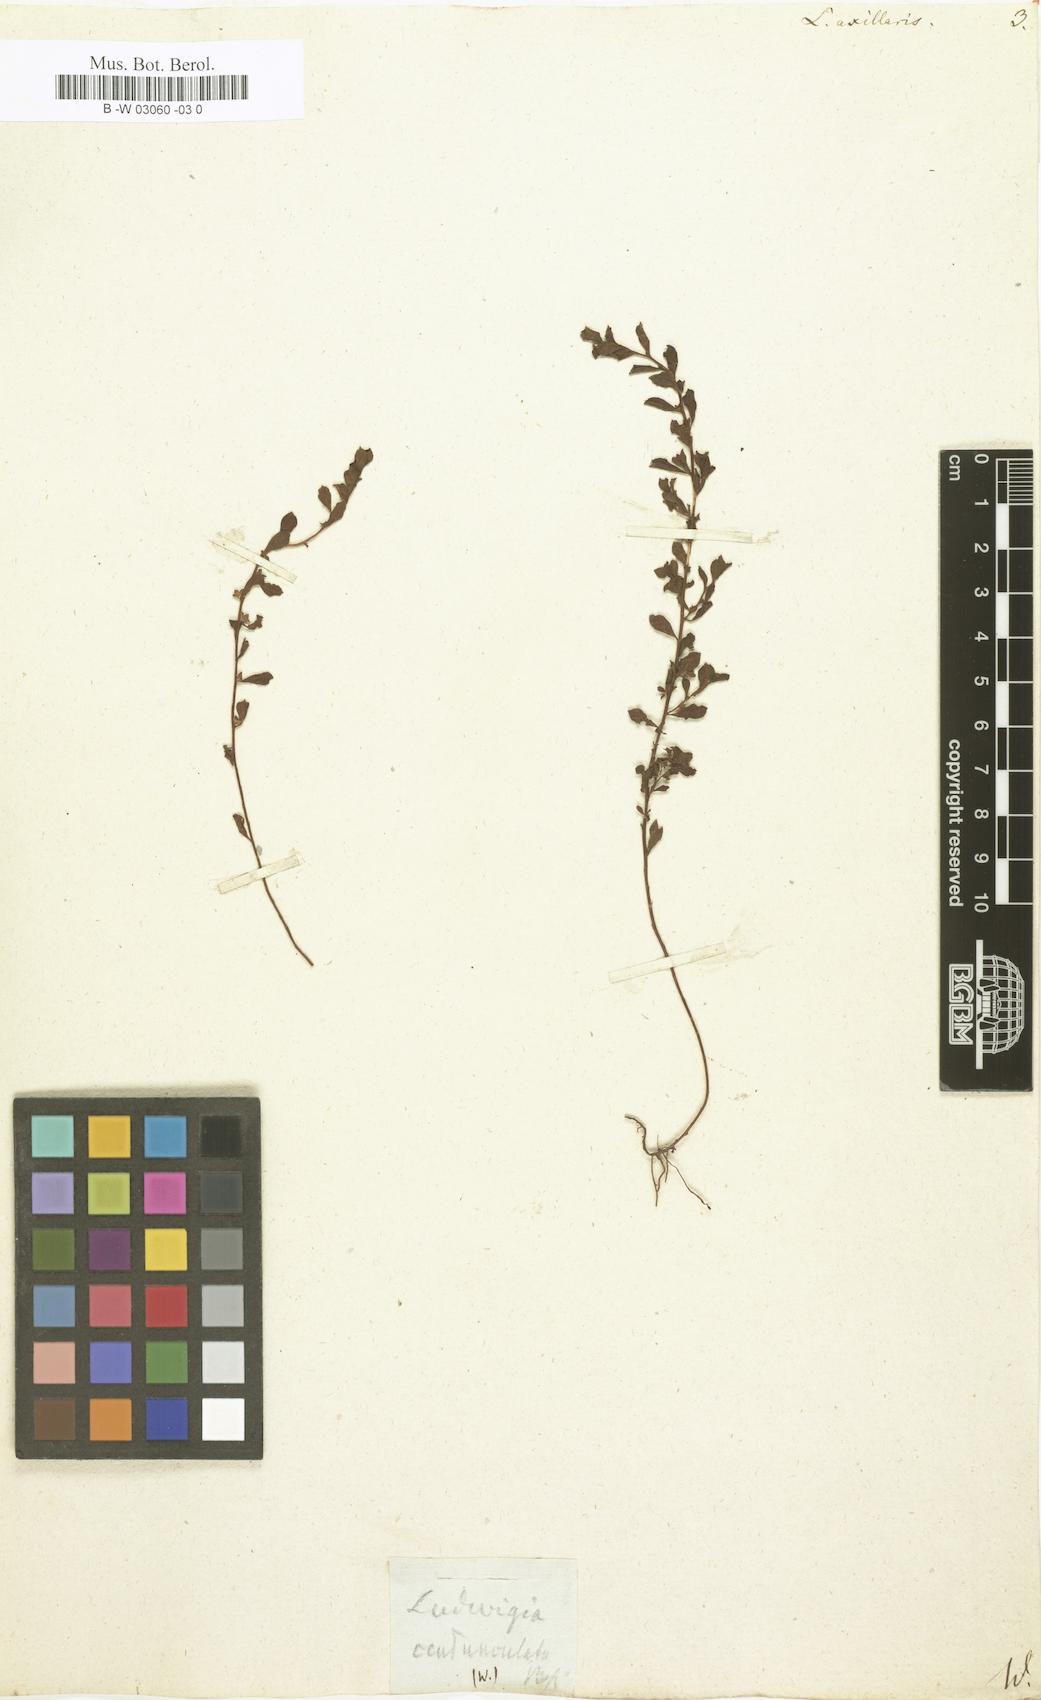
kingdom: Plantae
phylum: Tracheophyta
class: Magnoliopsida
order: Myrtales
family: Onagraceae
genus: Ludwigia
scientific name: Ludwigia
